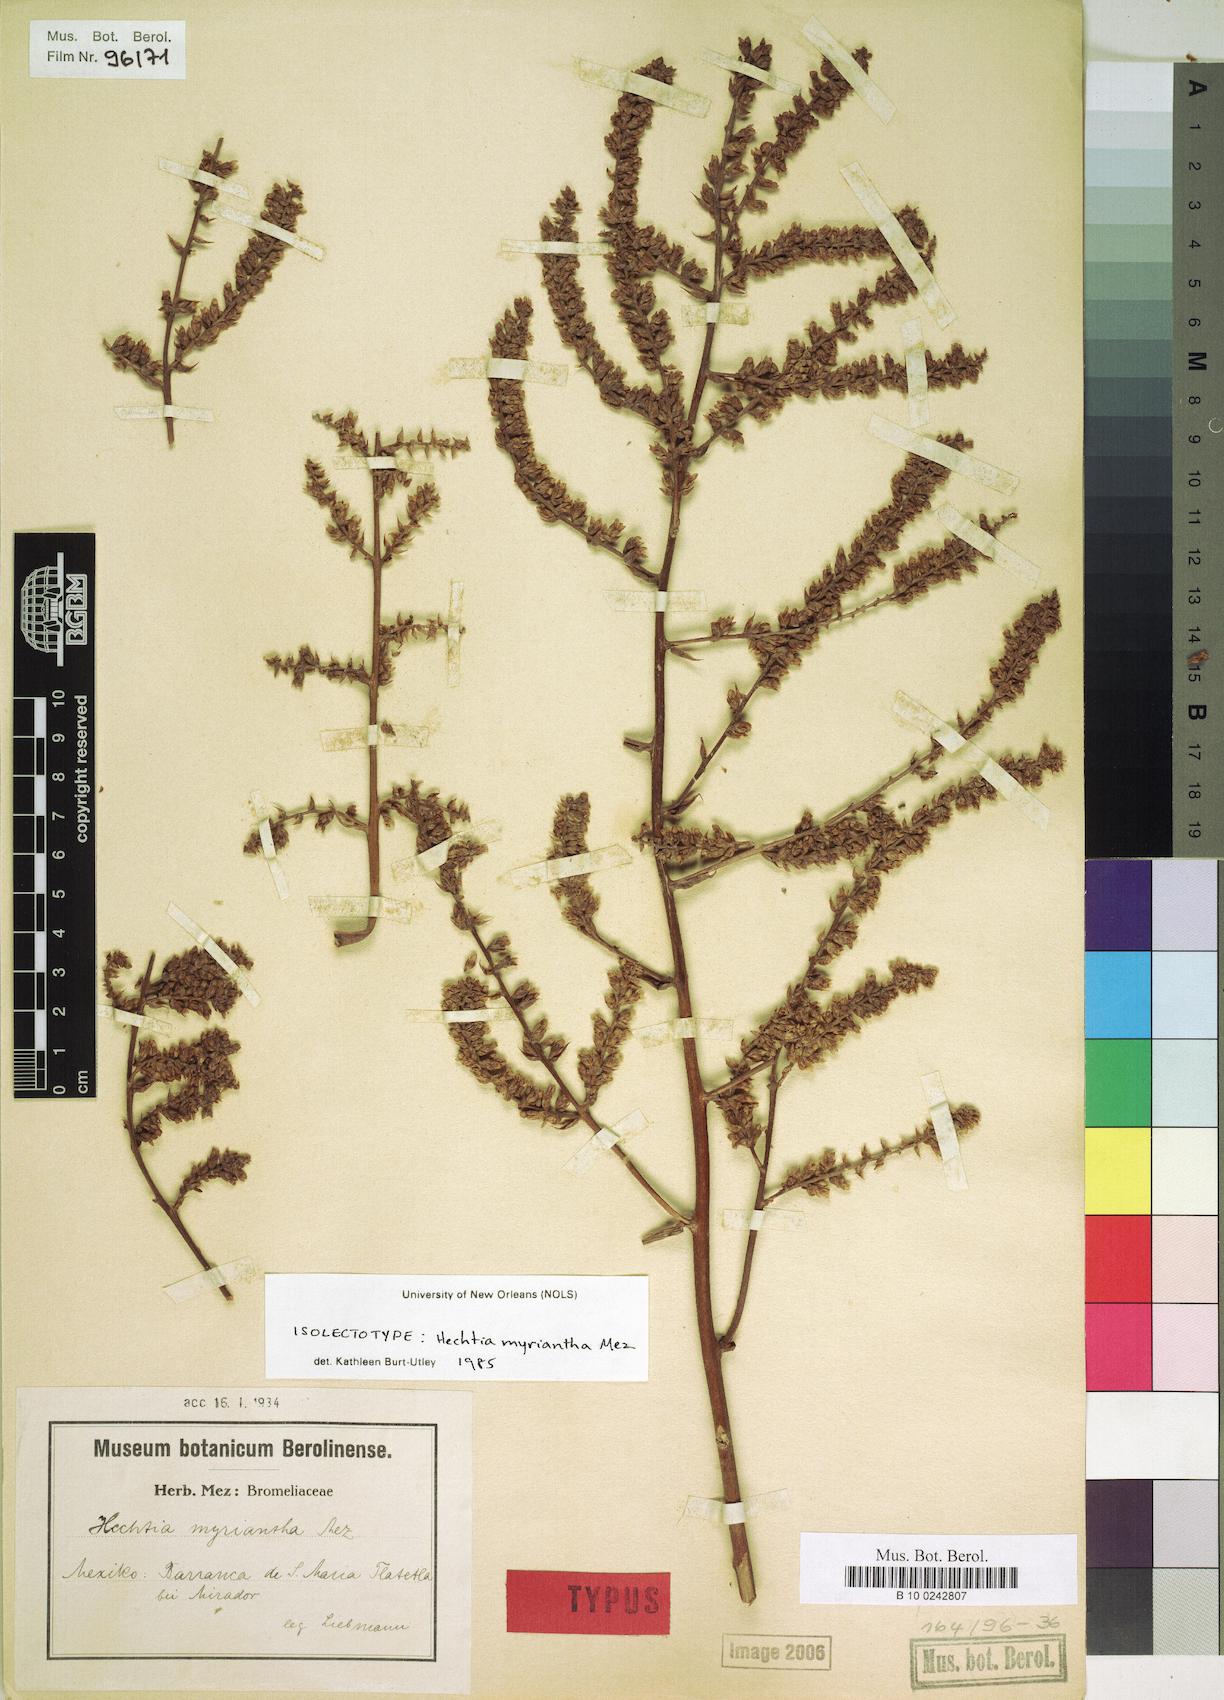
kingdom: Plantae
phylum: Tracheophyta
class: Liliopsida
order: Poales
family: Bromeliaceae
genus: Hechtia
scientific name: Hechtia myriantha
